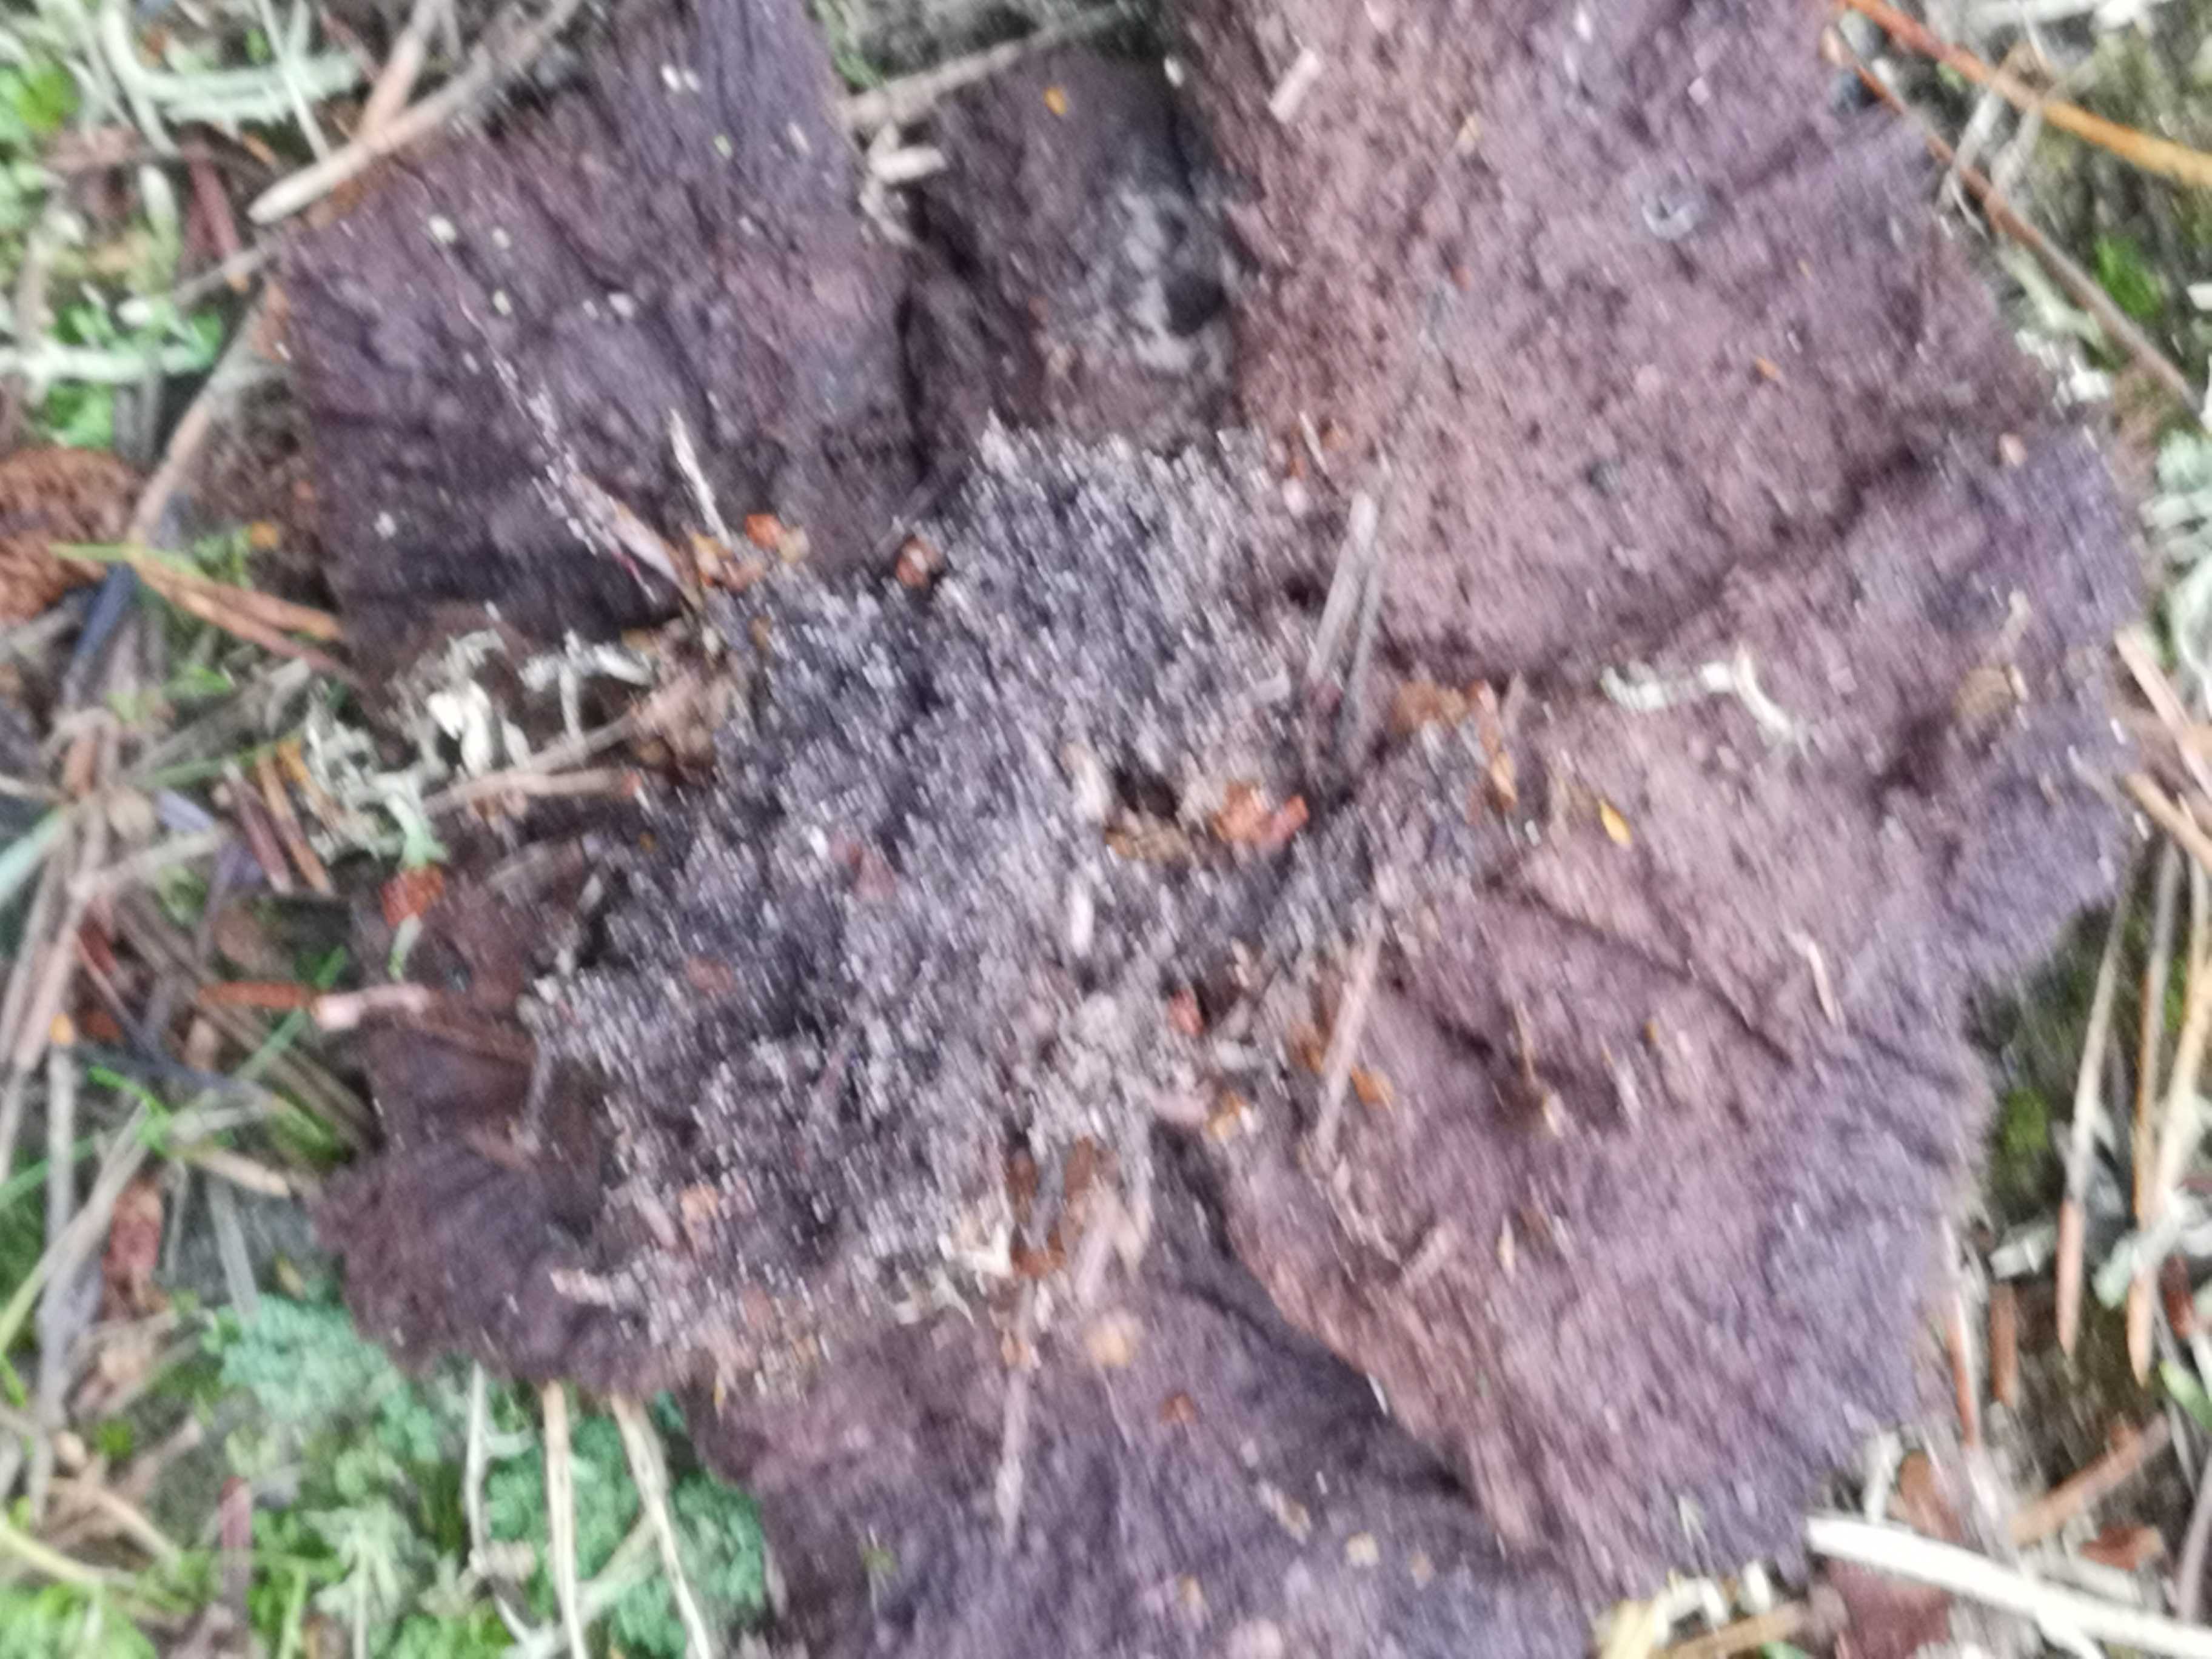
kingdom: Fungi
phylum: Basidiomycota
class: Agaricomycetes
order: Thelephorales
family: Thelephoraceae
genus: Thelephora
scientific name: Thelephora terrestris
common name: fliget frynsesvamp
